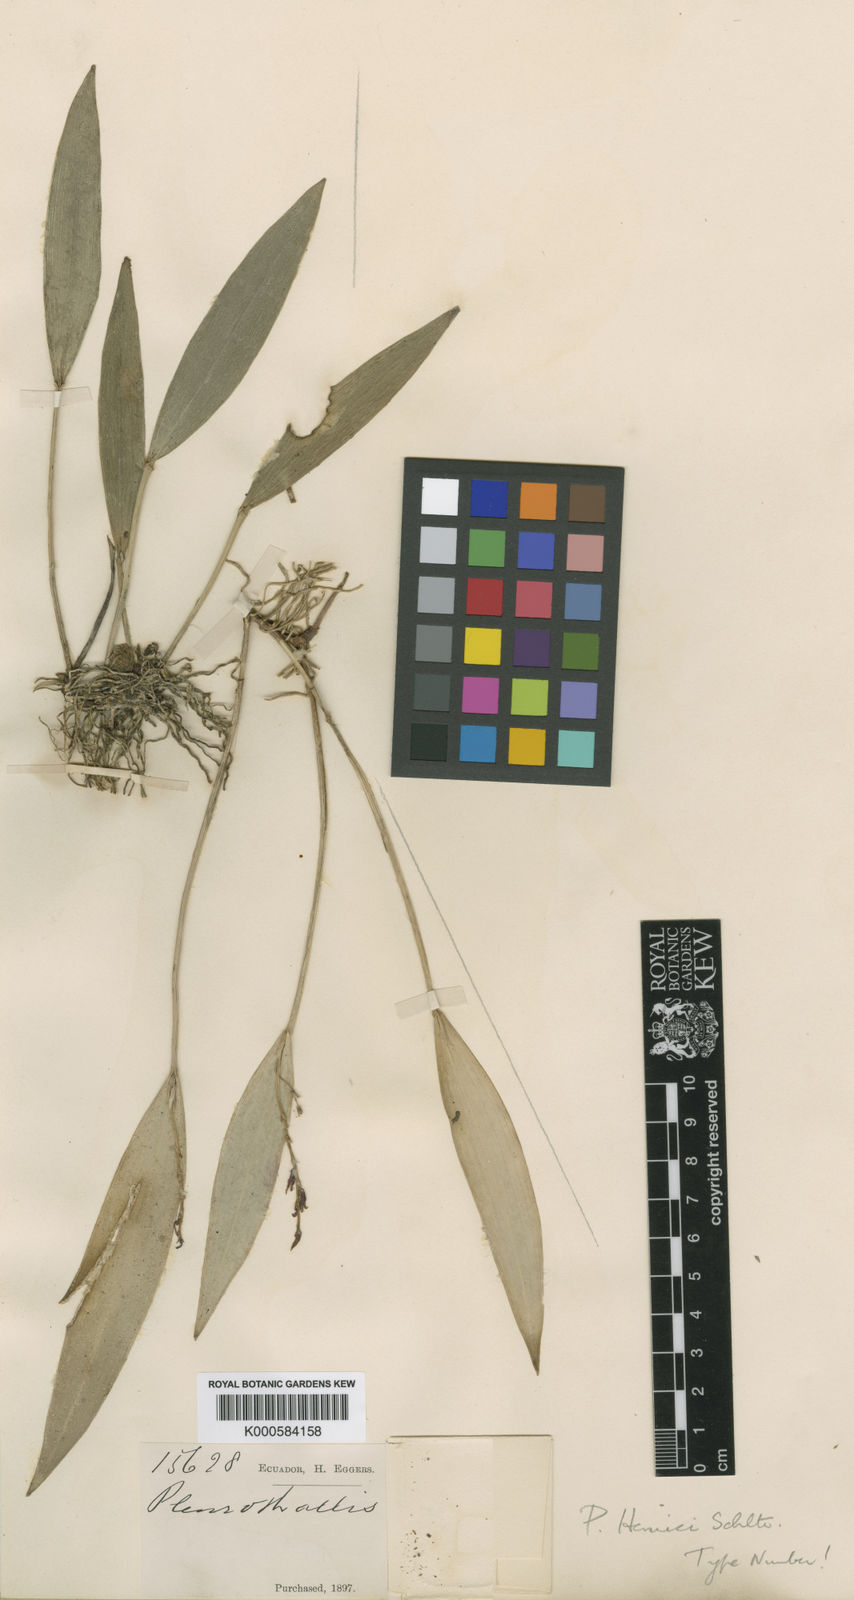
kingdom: Plantae
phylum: Tracheophyta
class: Liliopsida
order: Asparagales
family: Orchidaceae
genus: Acianthera
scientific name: Acianthera henrici
